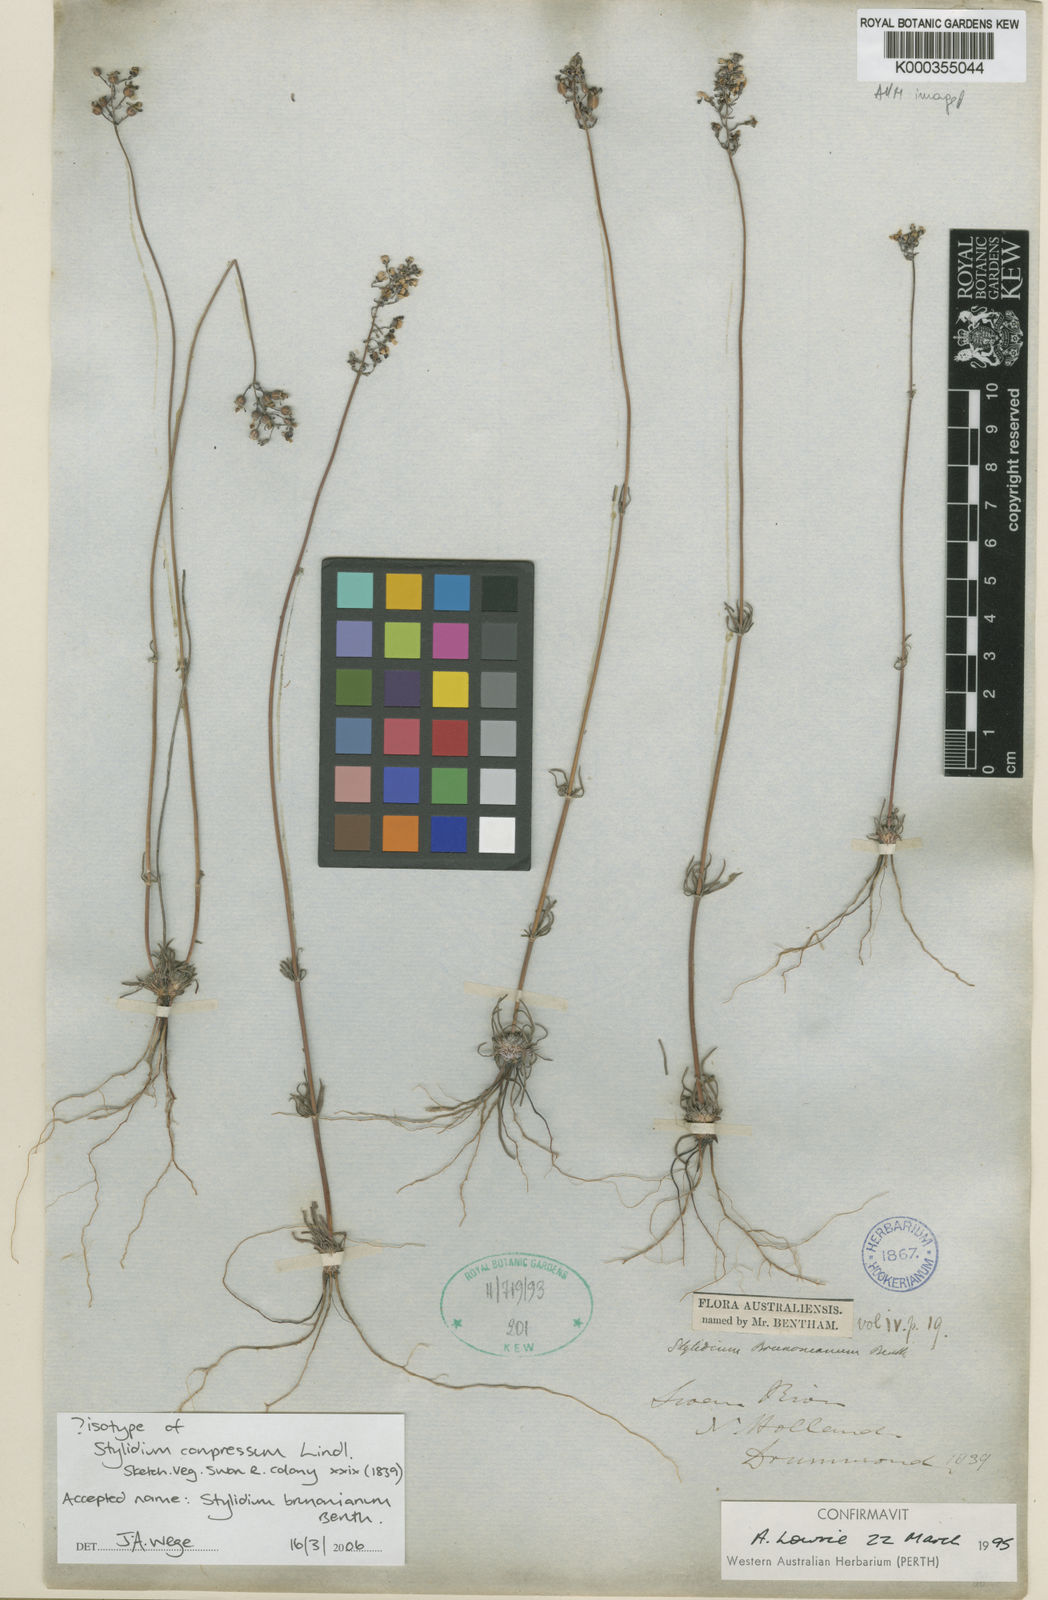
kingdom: Plantae
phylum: Tracheophyta
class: Magnoliopsida
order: Asterales
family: Stylidiaceae
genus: Stylidium
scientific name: Stylidium brunonianum
